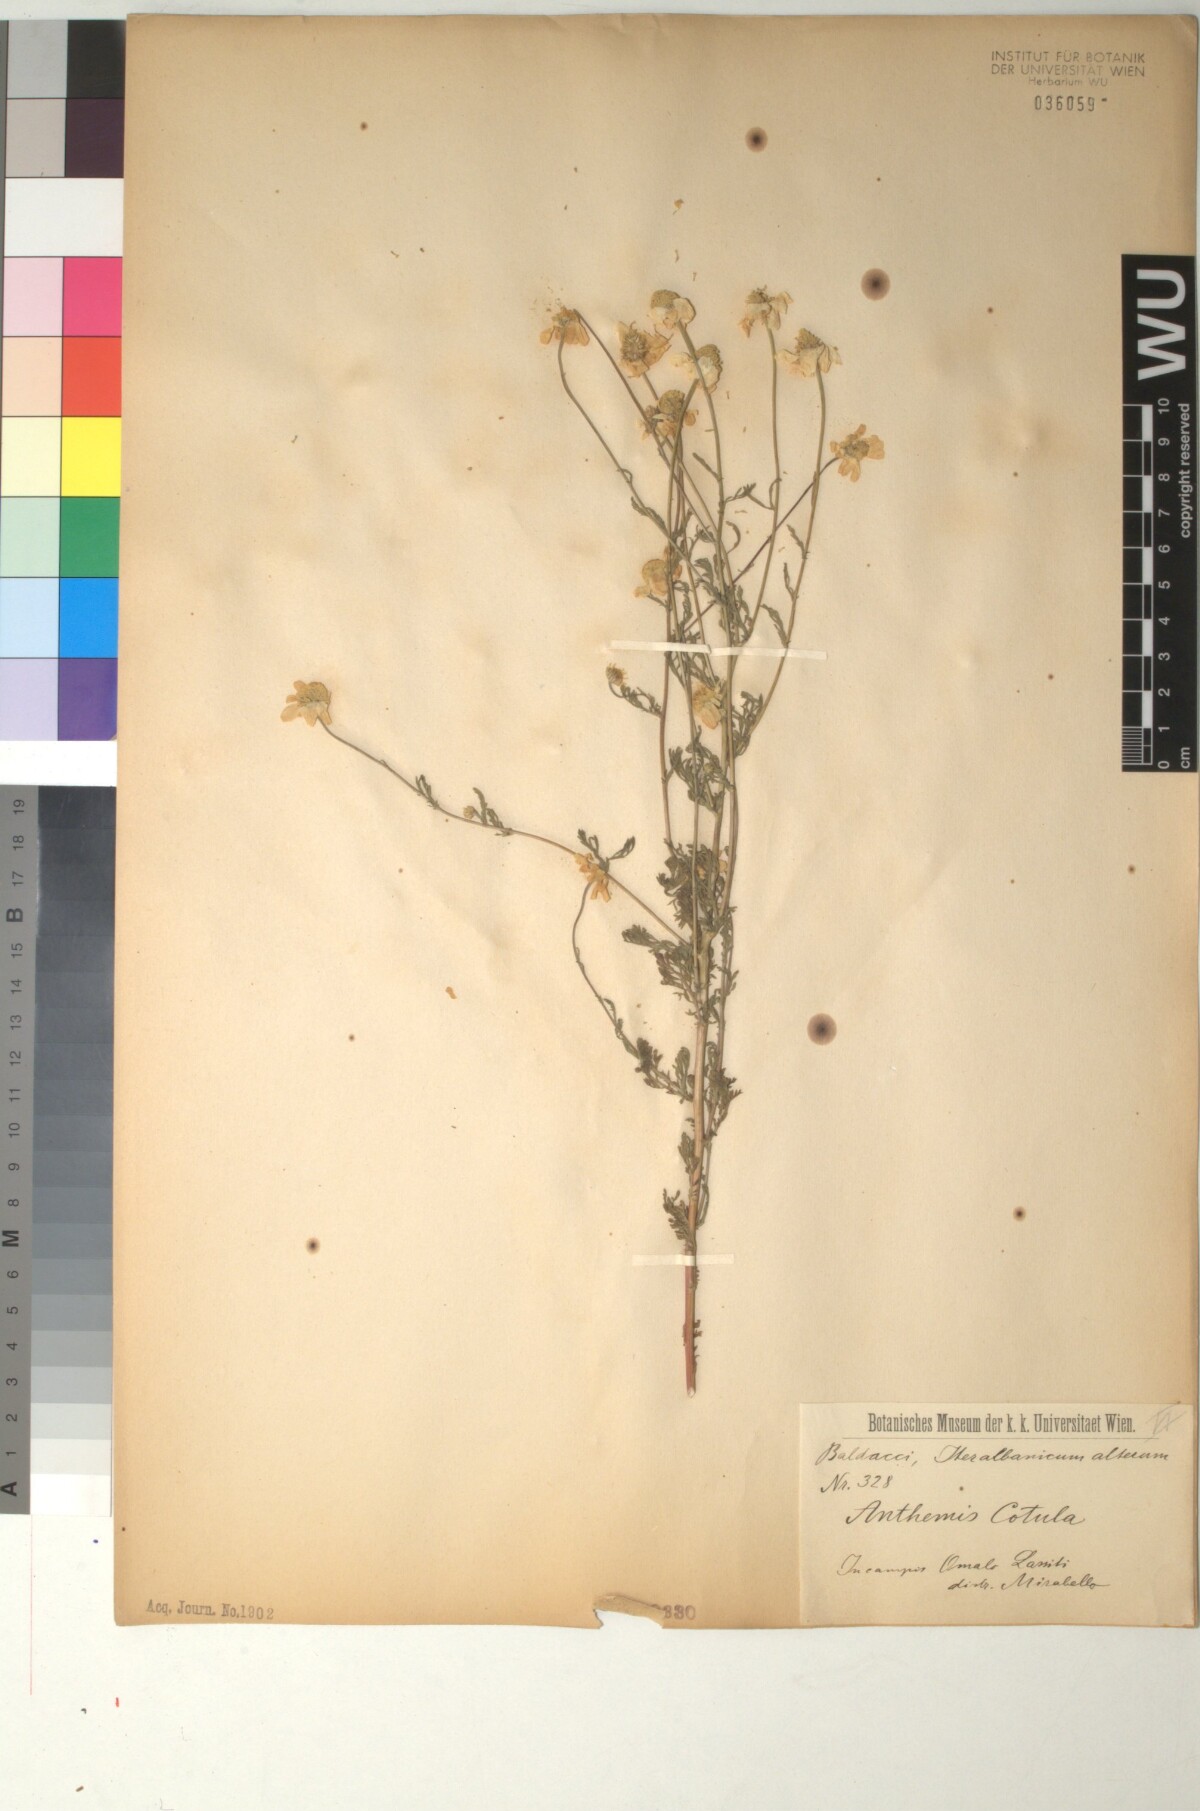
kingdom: Plantae
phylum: Tracheophyta
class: Magnoliopsida
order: Asterales
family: Asteraceae
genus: Anthemis
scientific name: Anthemis cotula
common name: Stinking chamomile
